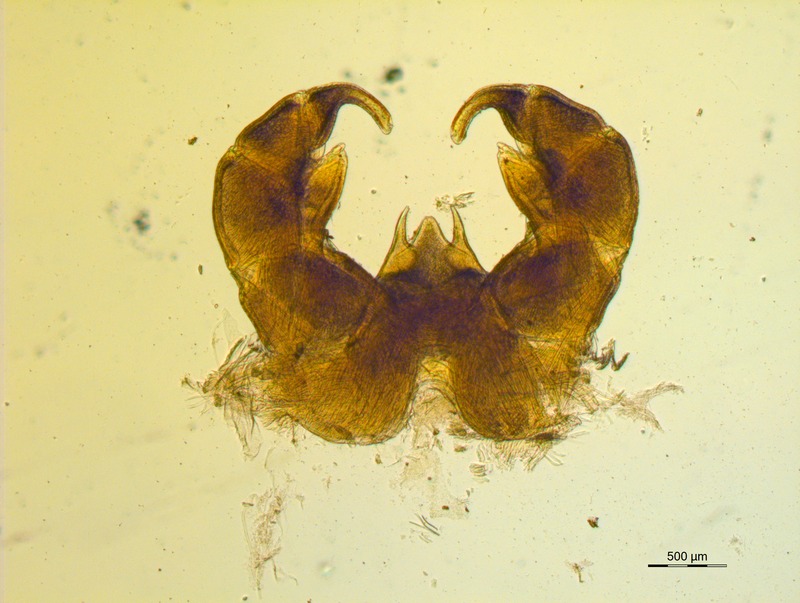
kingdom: Animalia
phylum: Arthropoda
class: Diplopoda
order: Glomerida
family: Glomeridae
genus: Onychoglomeris
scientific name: Onychoglomeris castanea
